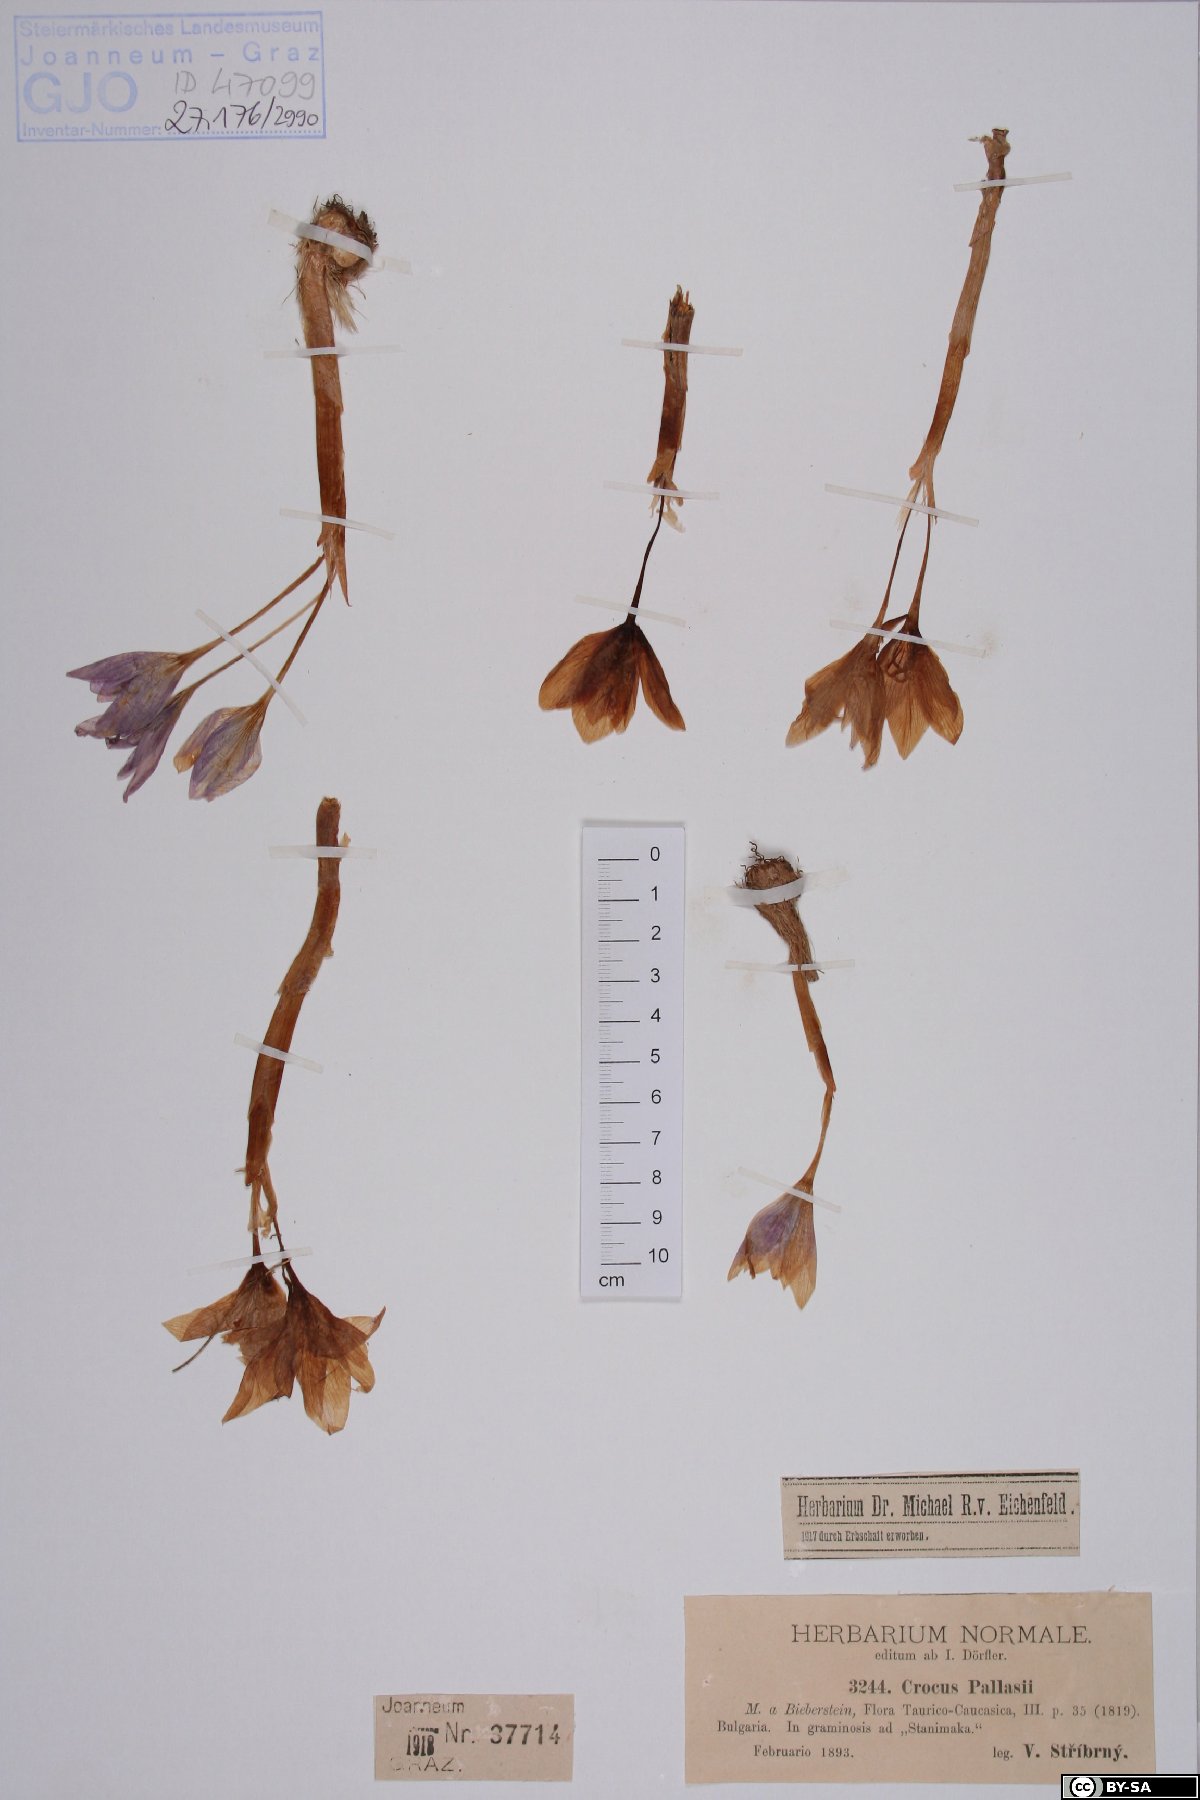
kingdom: Plantae
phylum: Tracheophyta
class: Liliopsida
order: Asparagales
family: Iridaceae
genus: Crocus
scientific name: Crocus pallasii
